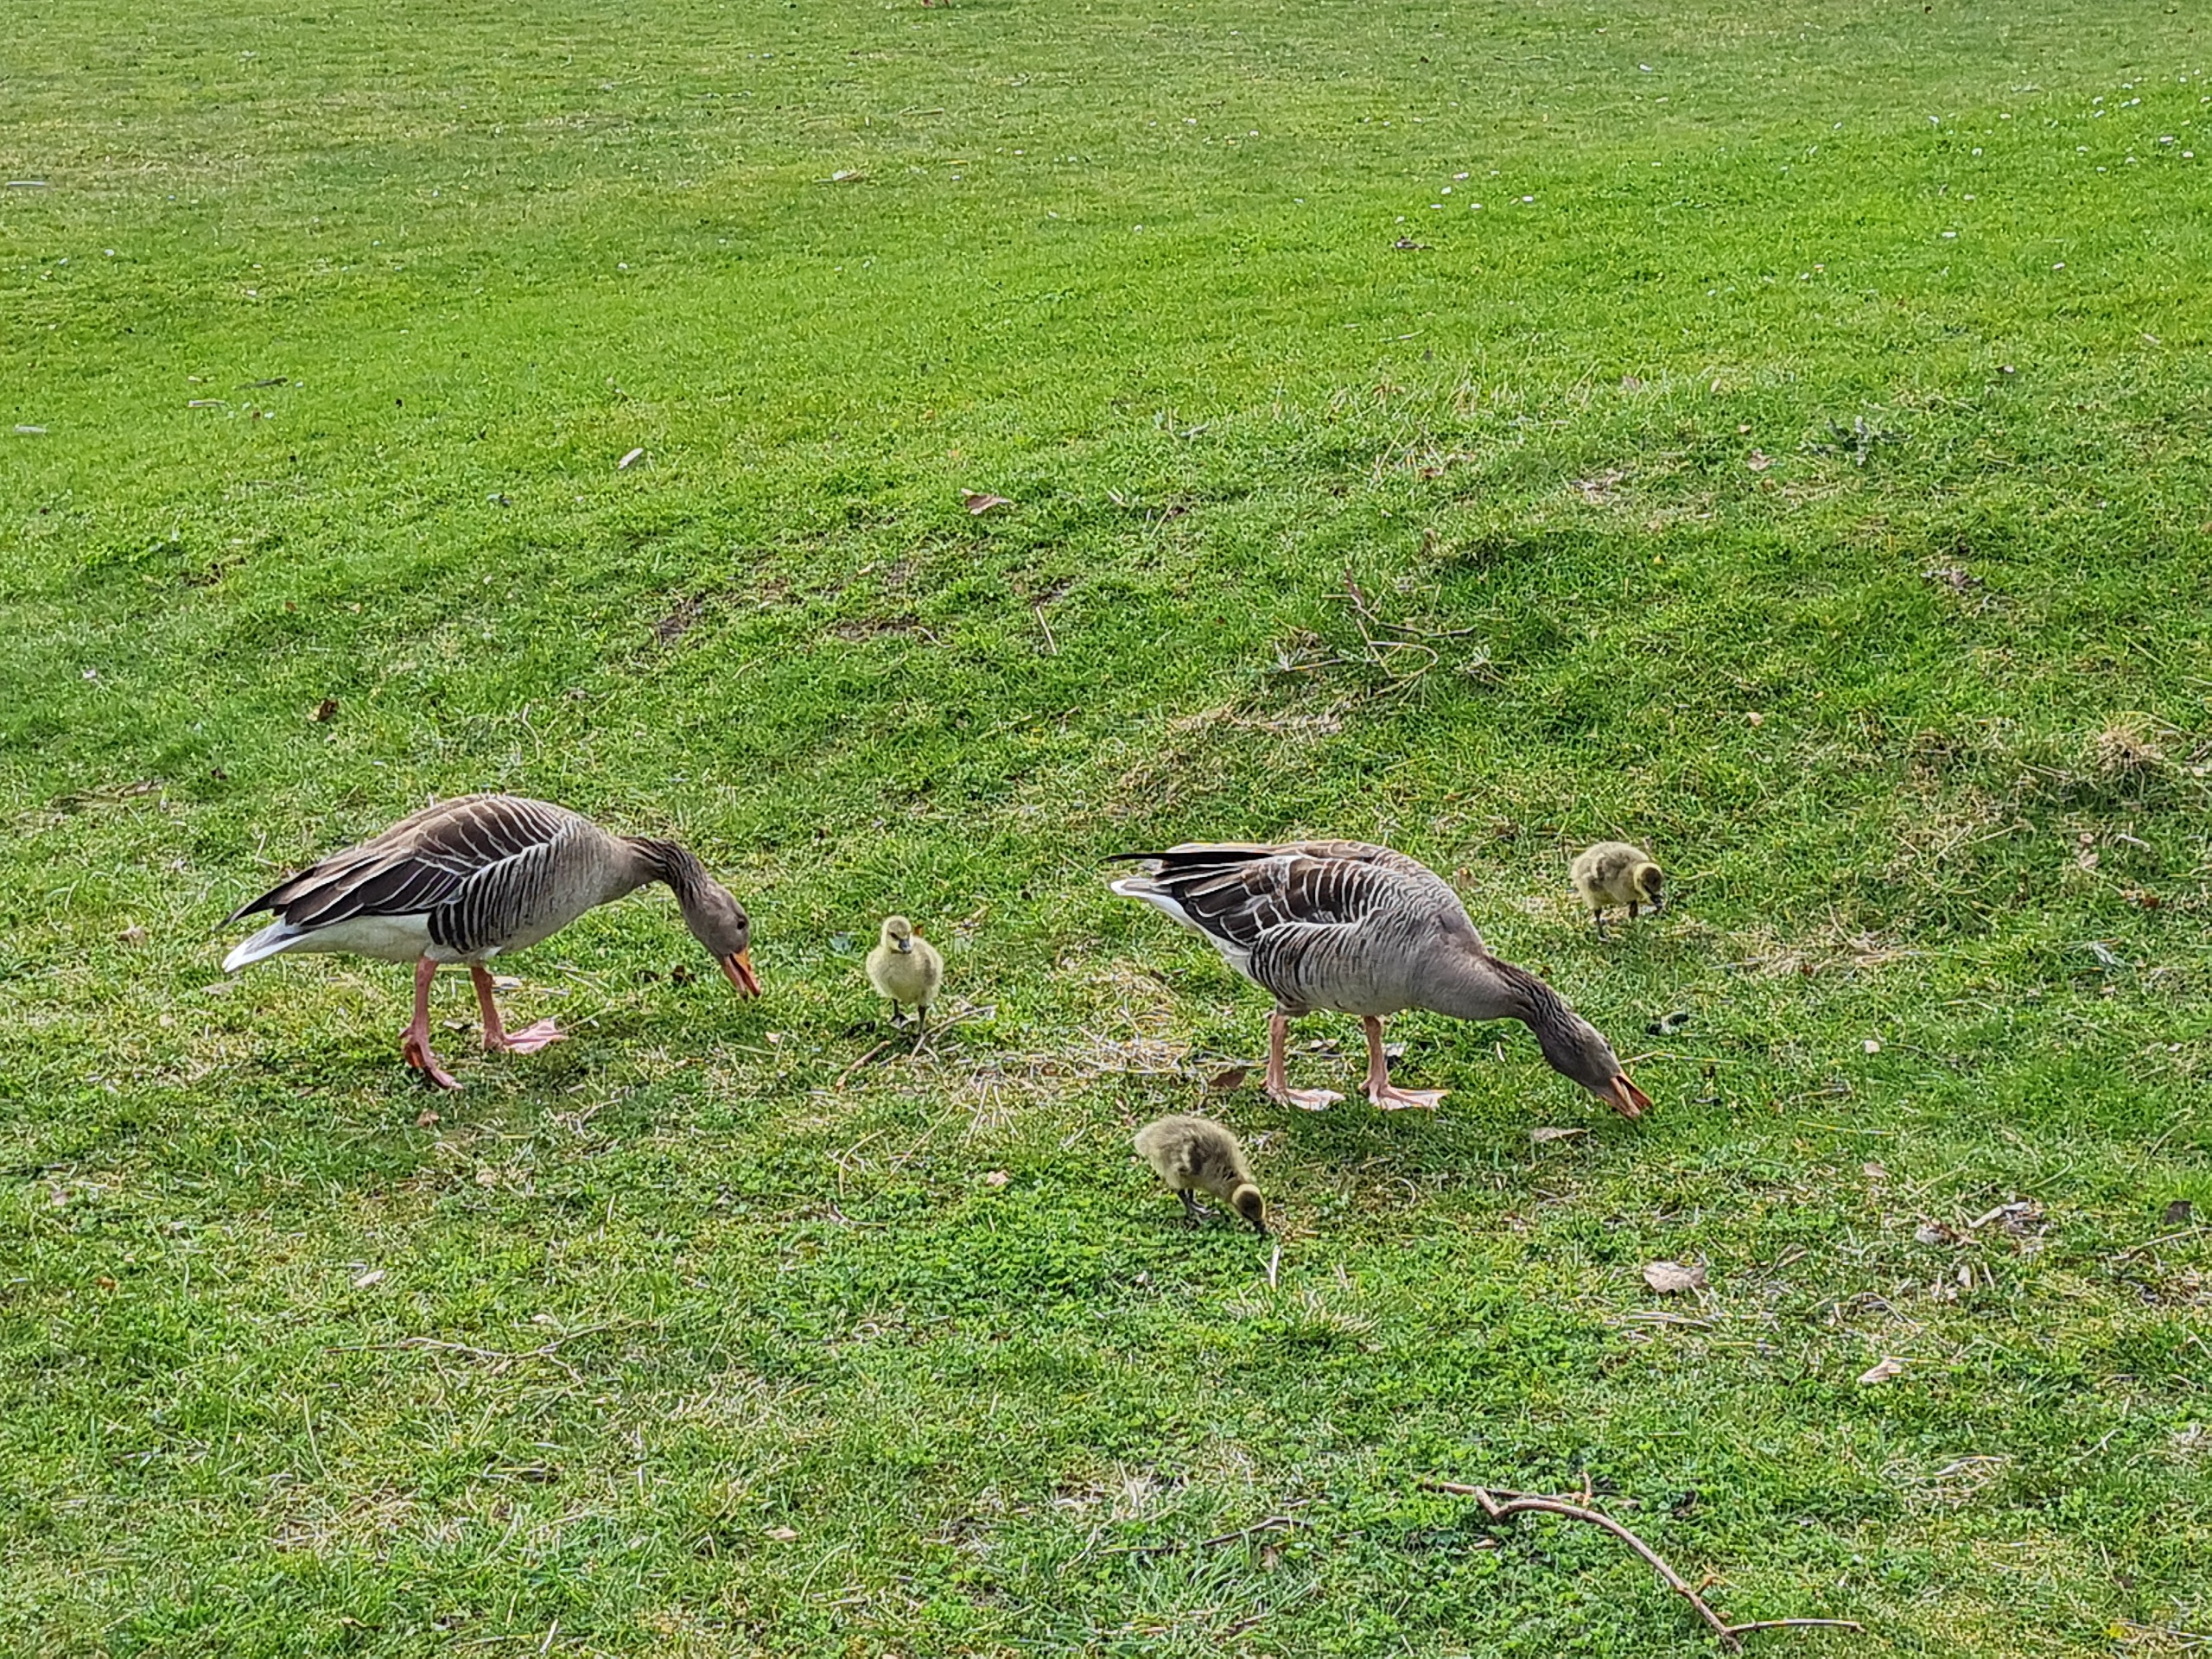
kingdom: Animalia
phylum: Chordata
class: Aves
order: Anseriformes
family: Anatidae
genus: Anser
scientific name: Anser anser
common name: Grågås
